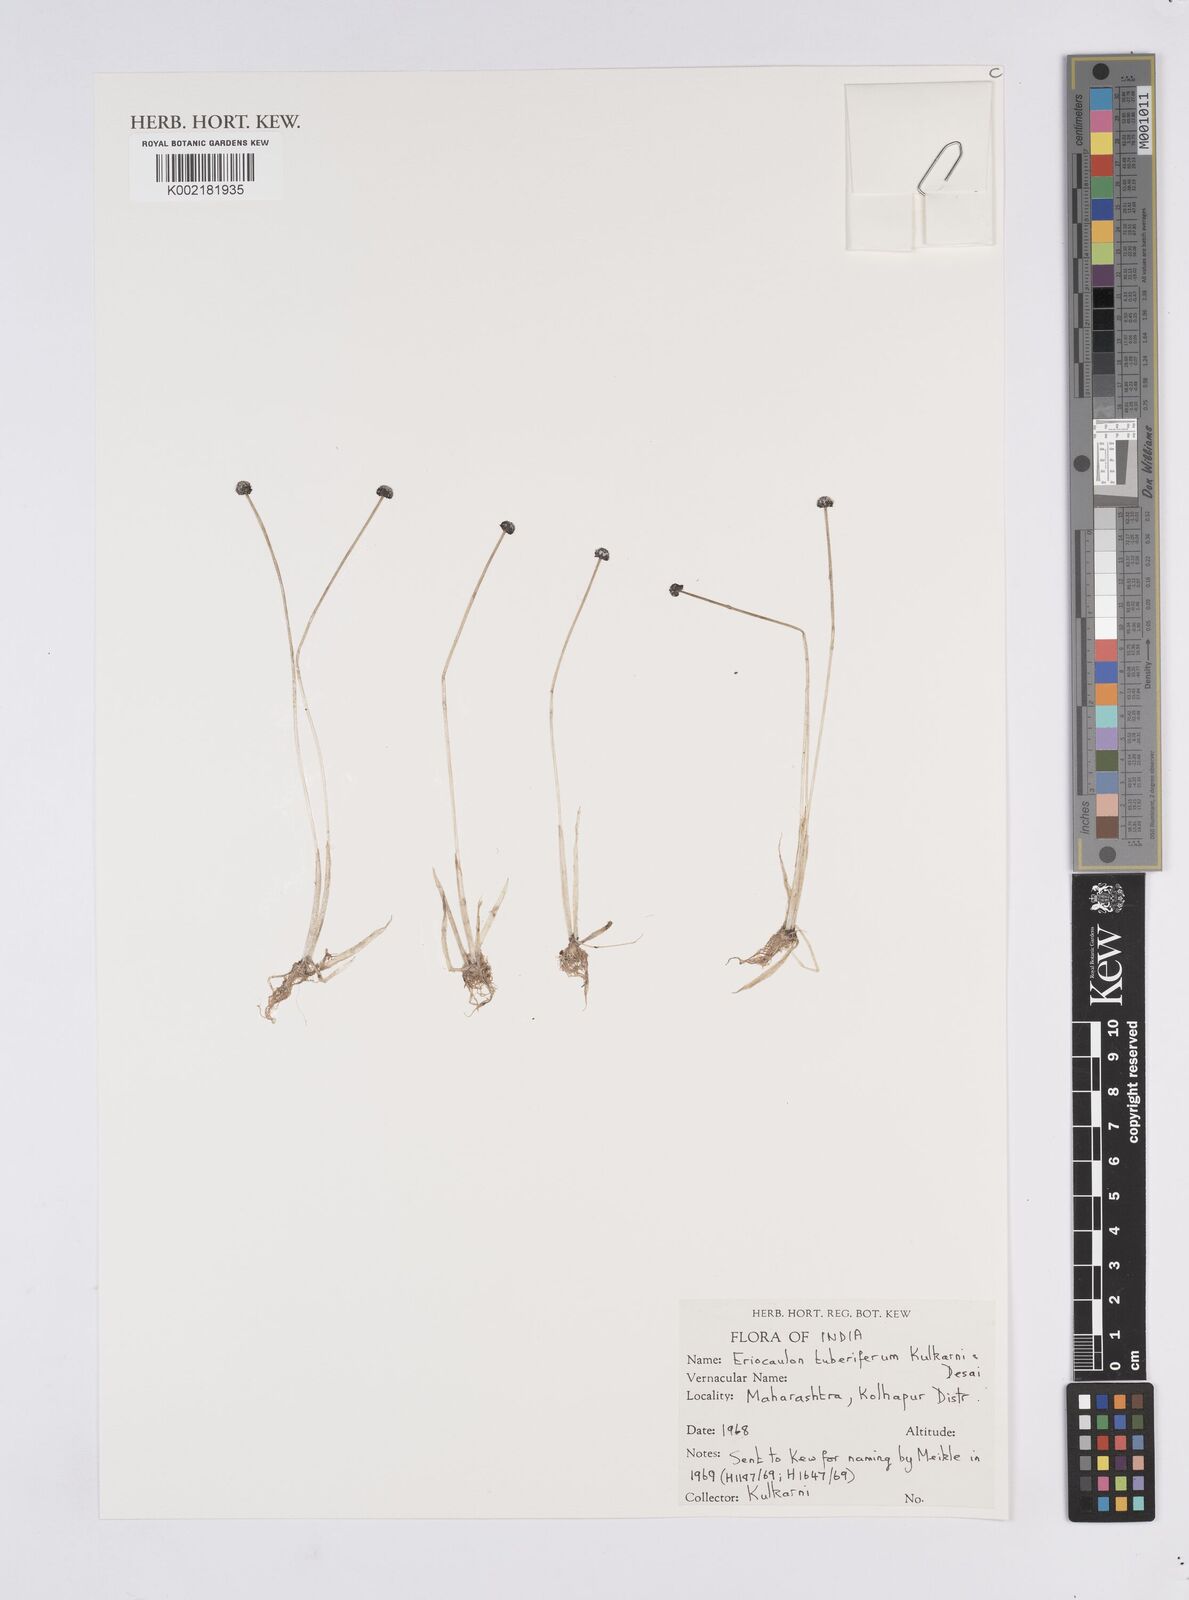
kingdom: Plantae
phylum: Tracheophyta
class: Liliopsida
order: Poales
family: Eriocaulaceae
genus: Eriocaulon
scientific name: Eriocaulon tuberiferum
